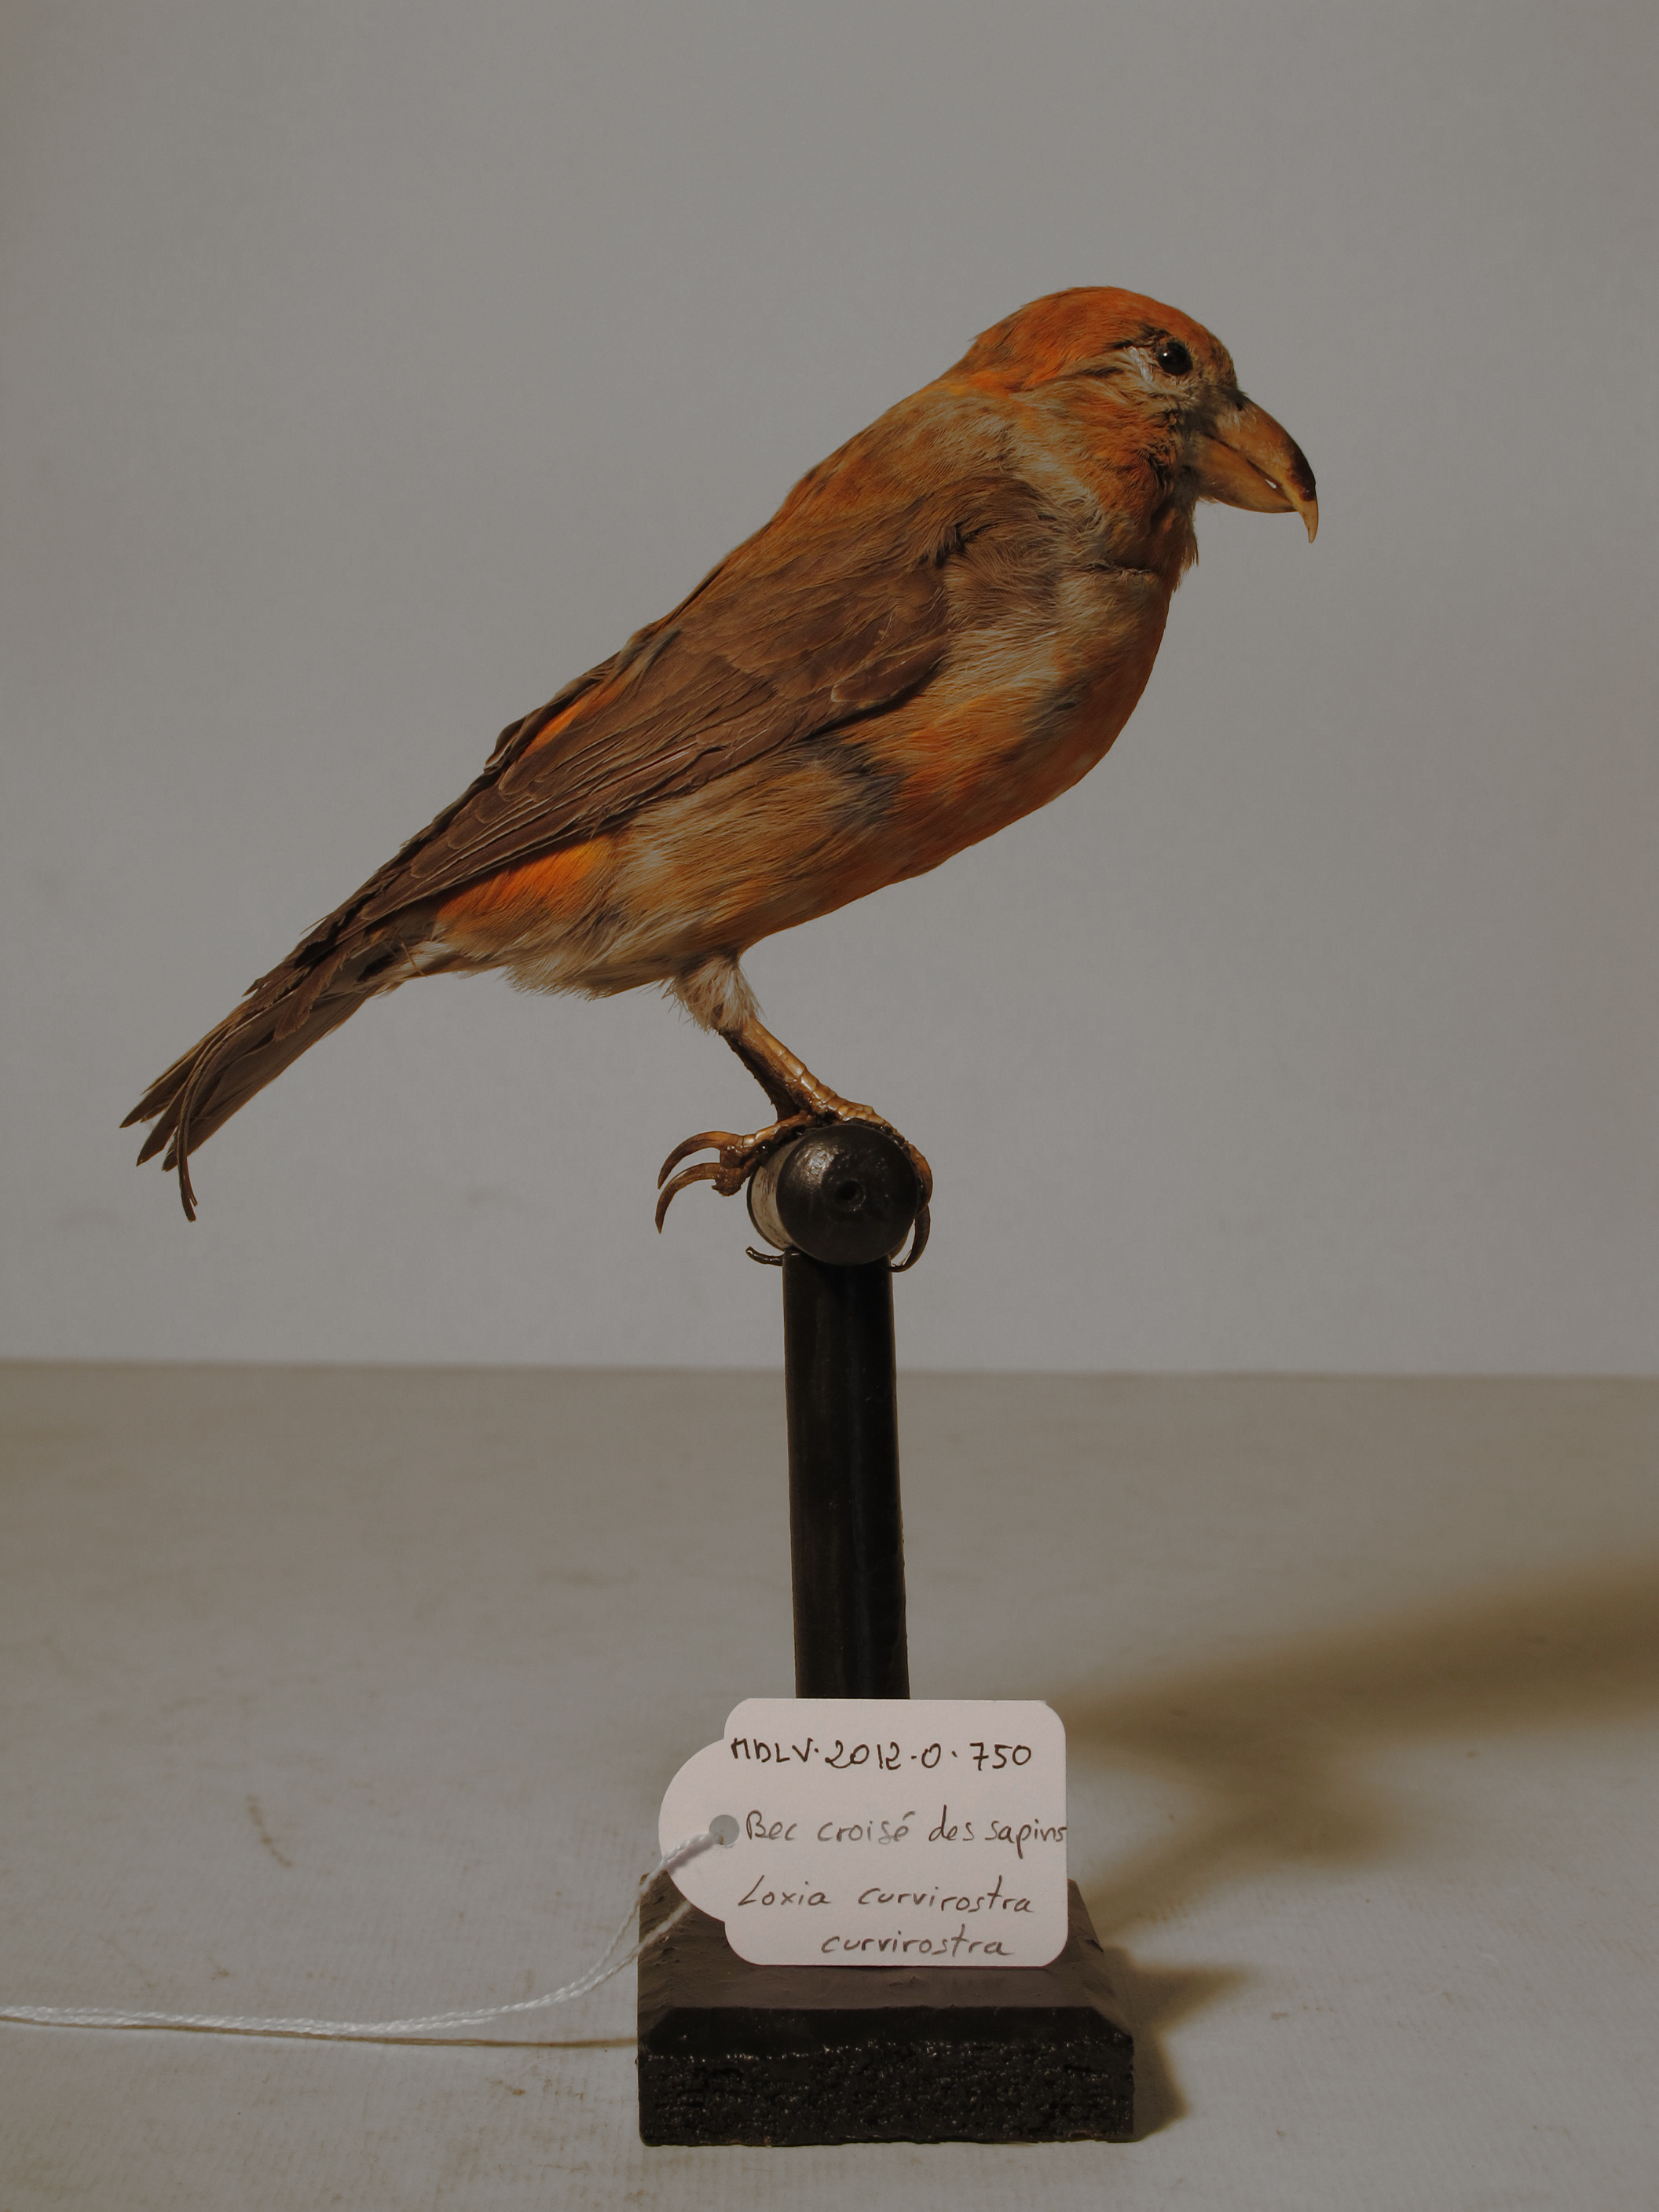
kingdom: Animalia
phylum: Chordata
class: Aves
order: Passeriformes
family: Fringillidae
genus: Loxia
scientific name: Loxia curvirostra
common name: Red Crossbill
